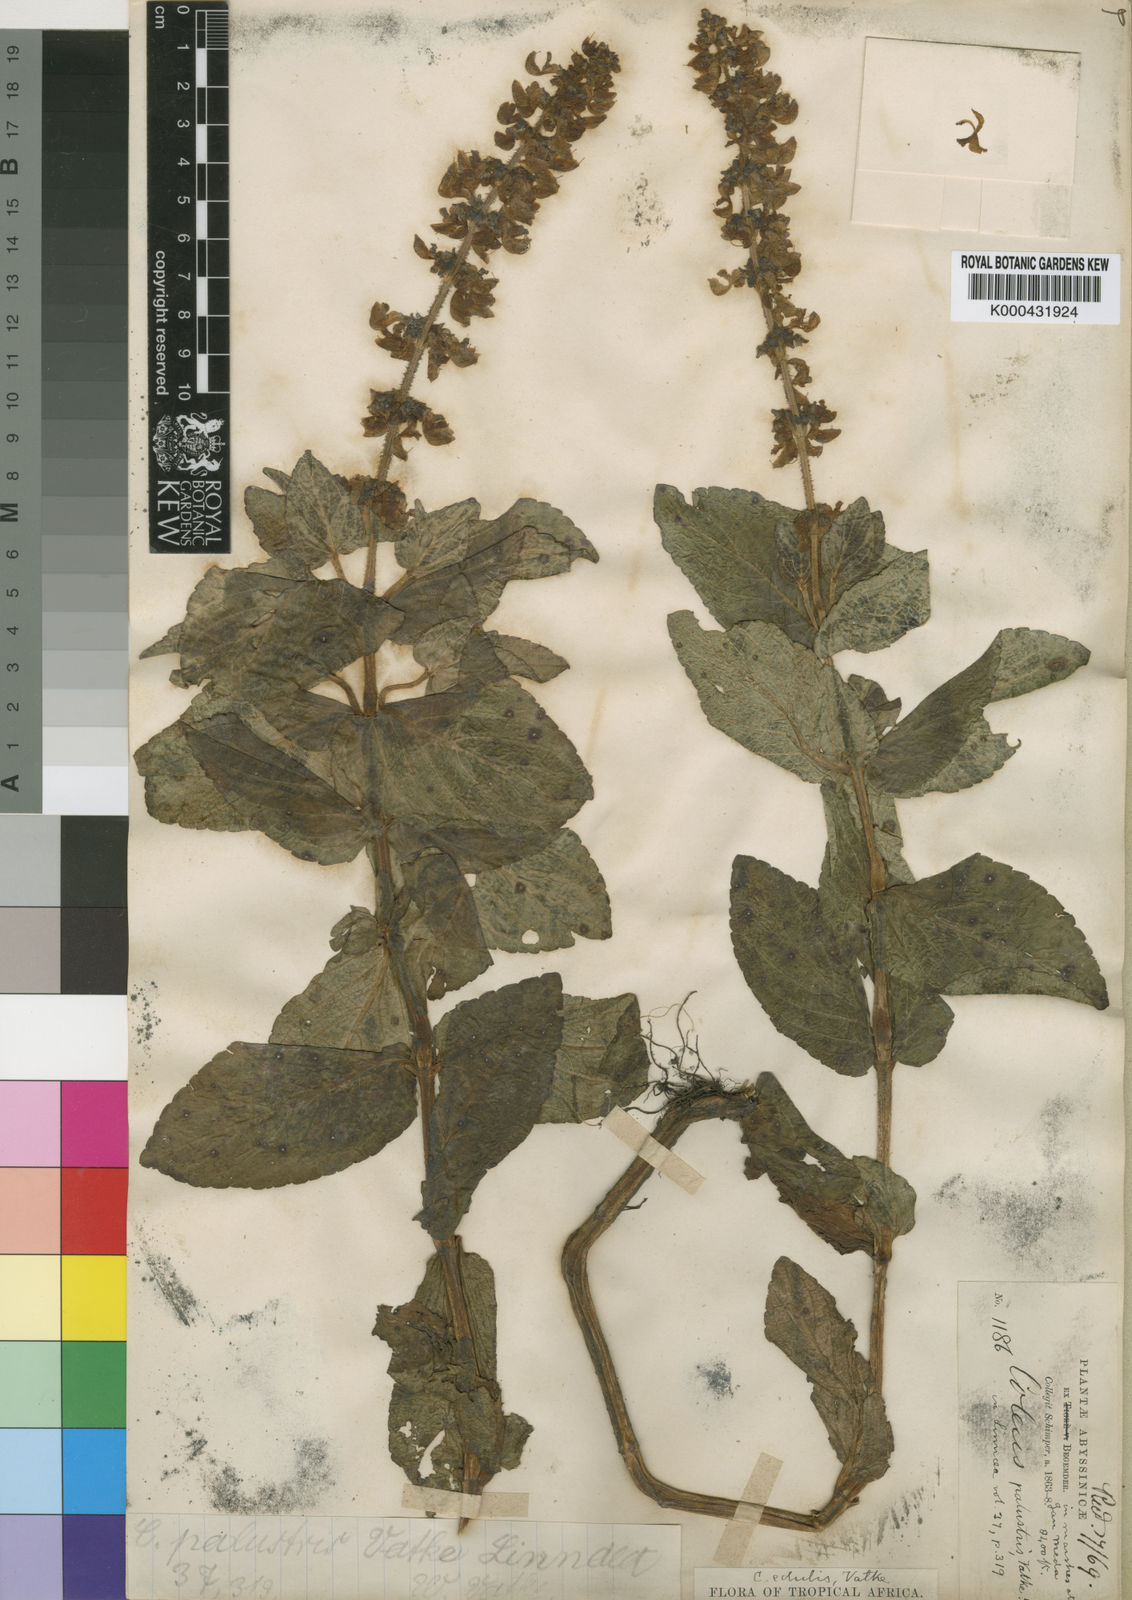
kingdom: Plantae
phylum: Tracheophyta
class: Magnoliopsida
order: Lamiales
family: Lamiaceae
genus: Coleus
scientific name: Coleus maculosus
